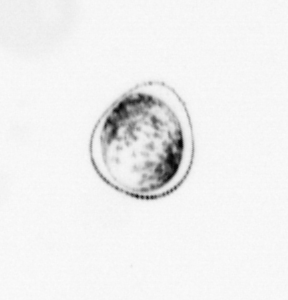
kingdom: Chromista
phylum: Myzozoa
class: Dinophyceae
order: Noctilucales
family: Noctilucaceae
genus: Noctiluca
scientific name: Noctiluca scintillans
